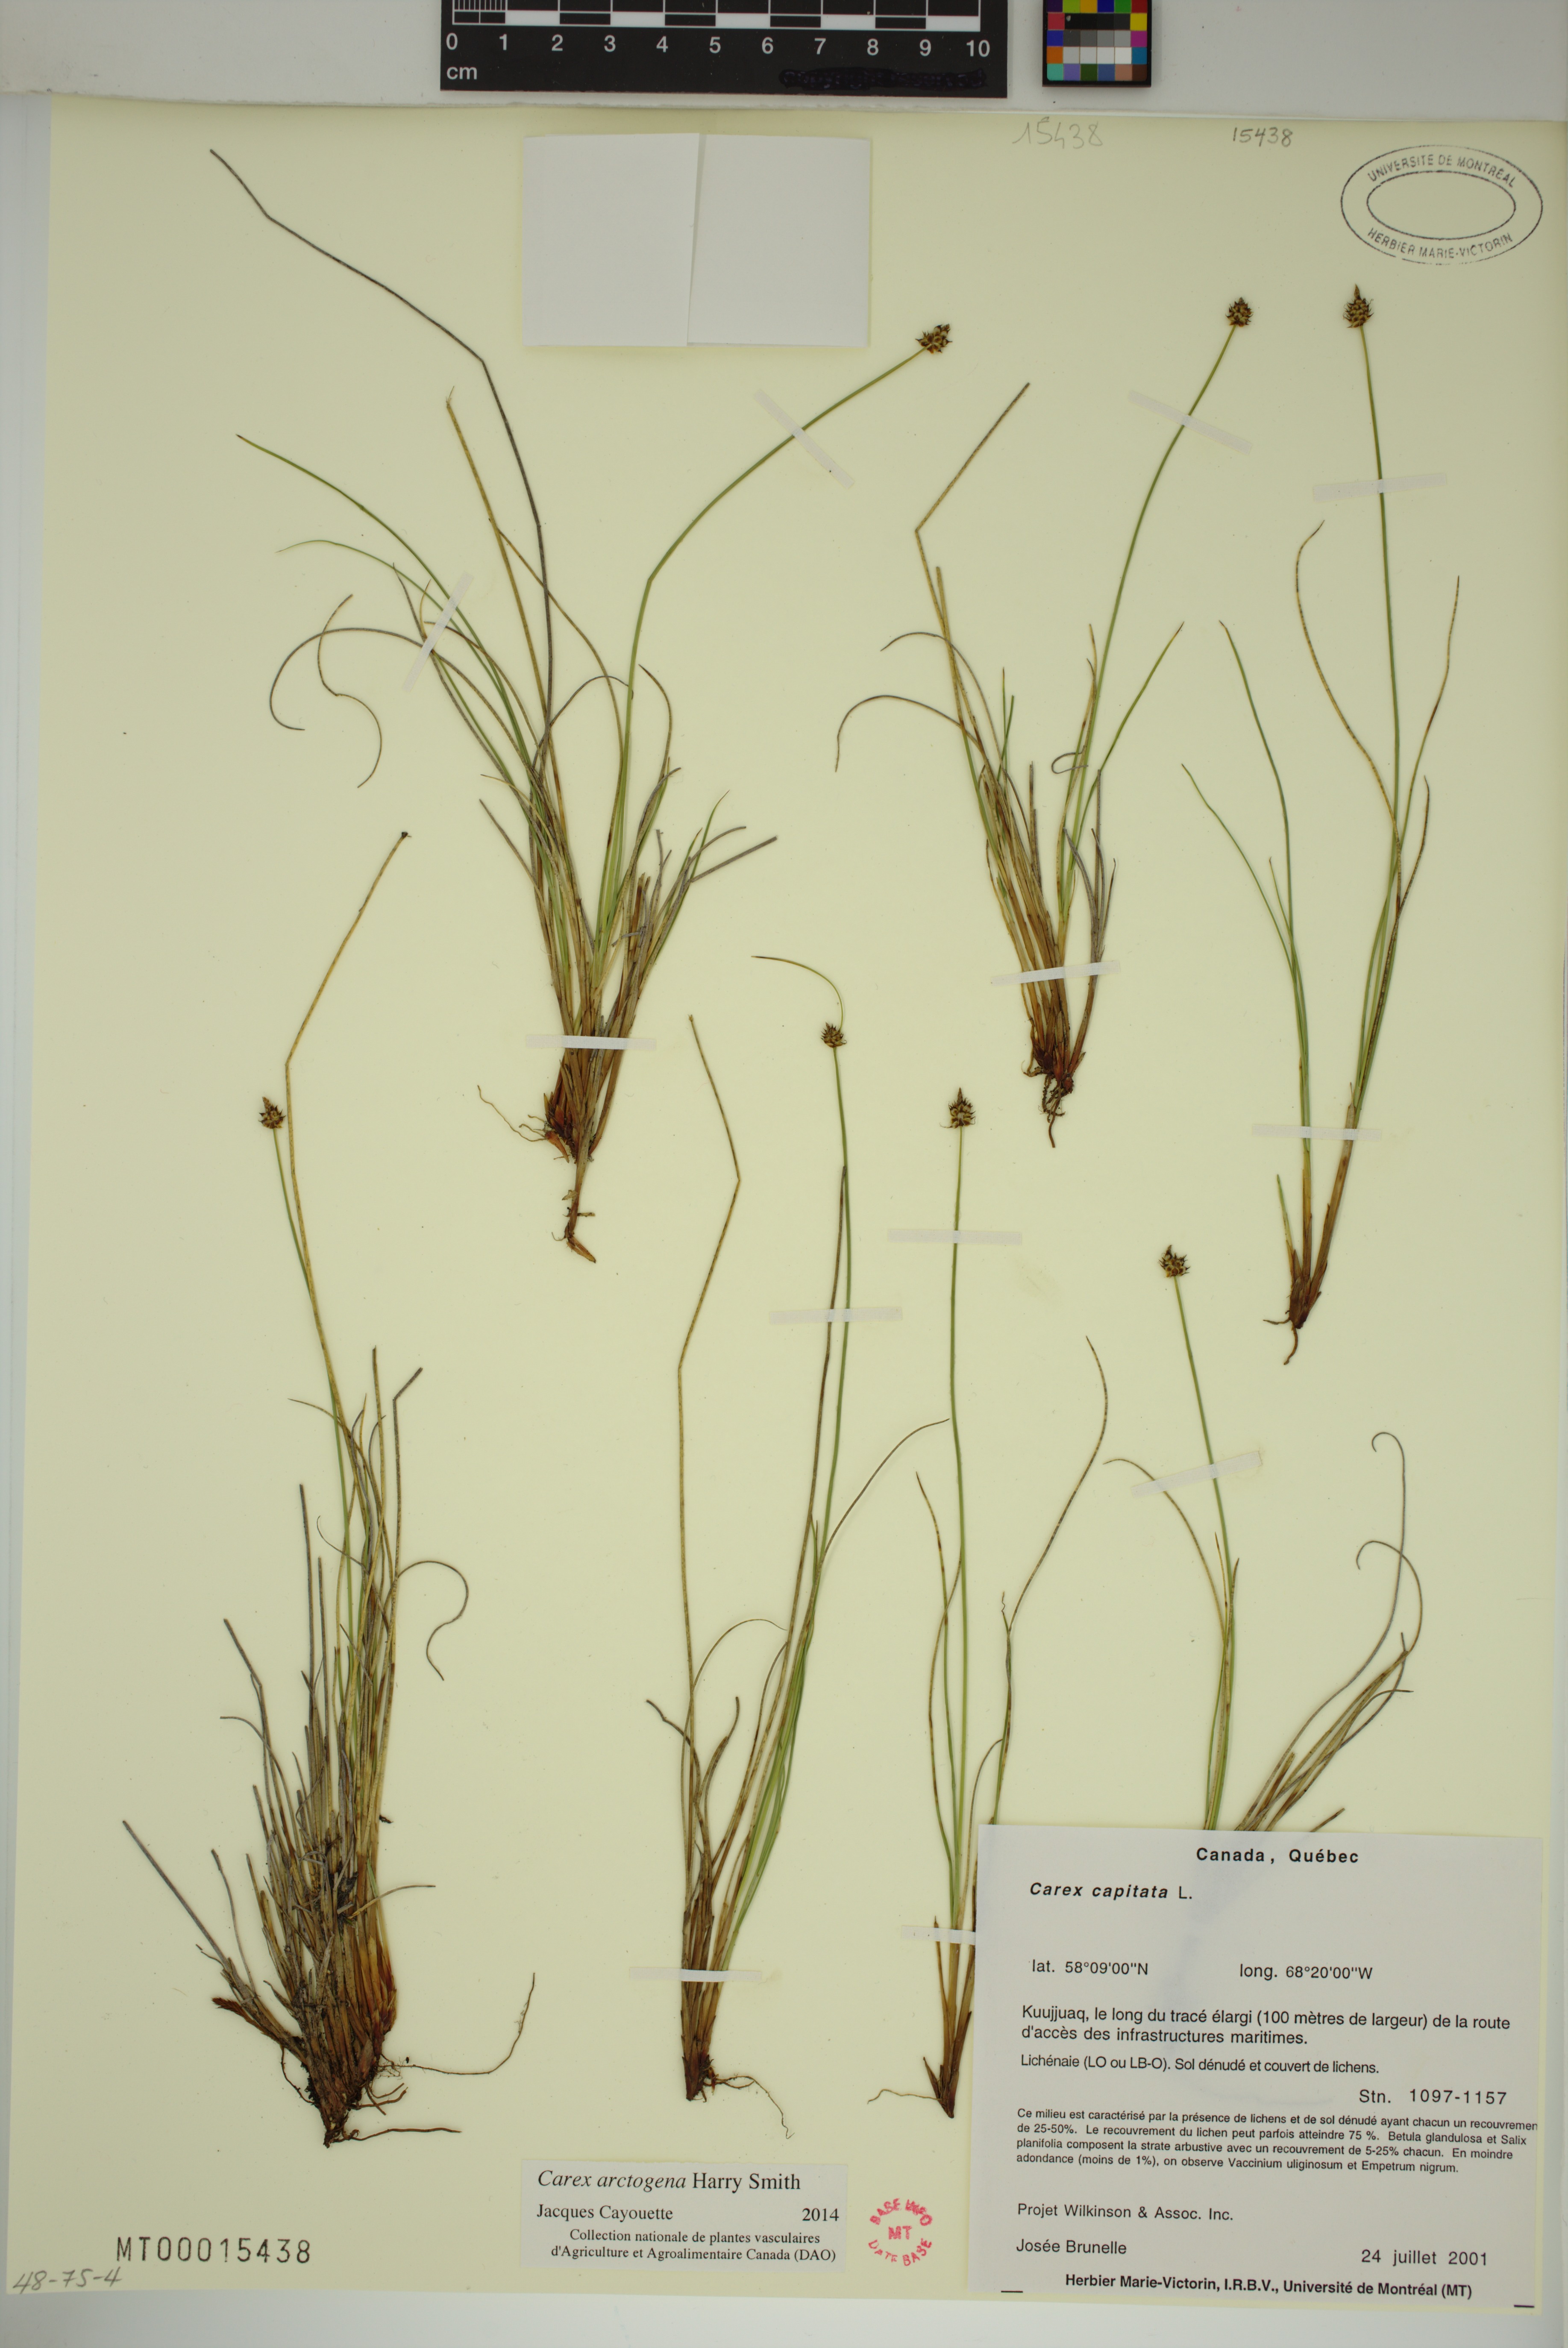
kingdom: Plantae
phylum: Tracheophyta
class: Liliopsida
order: Poales
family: Cyperaceae
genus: Carex
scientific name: Carex arctogena
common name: Black sedge
